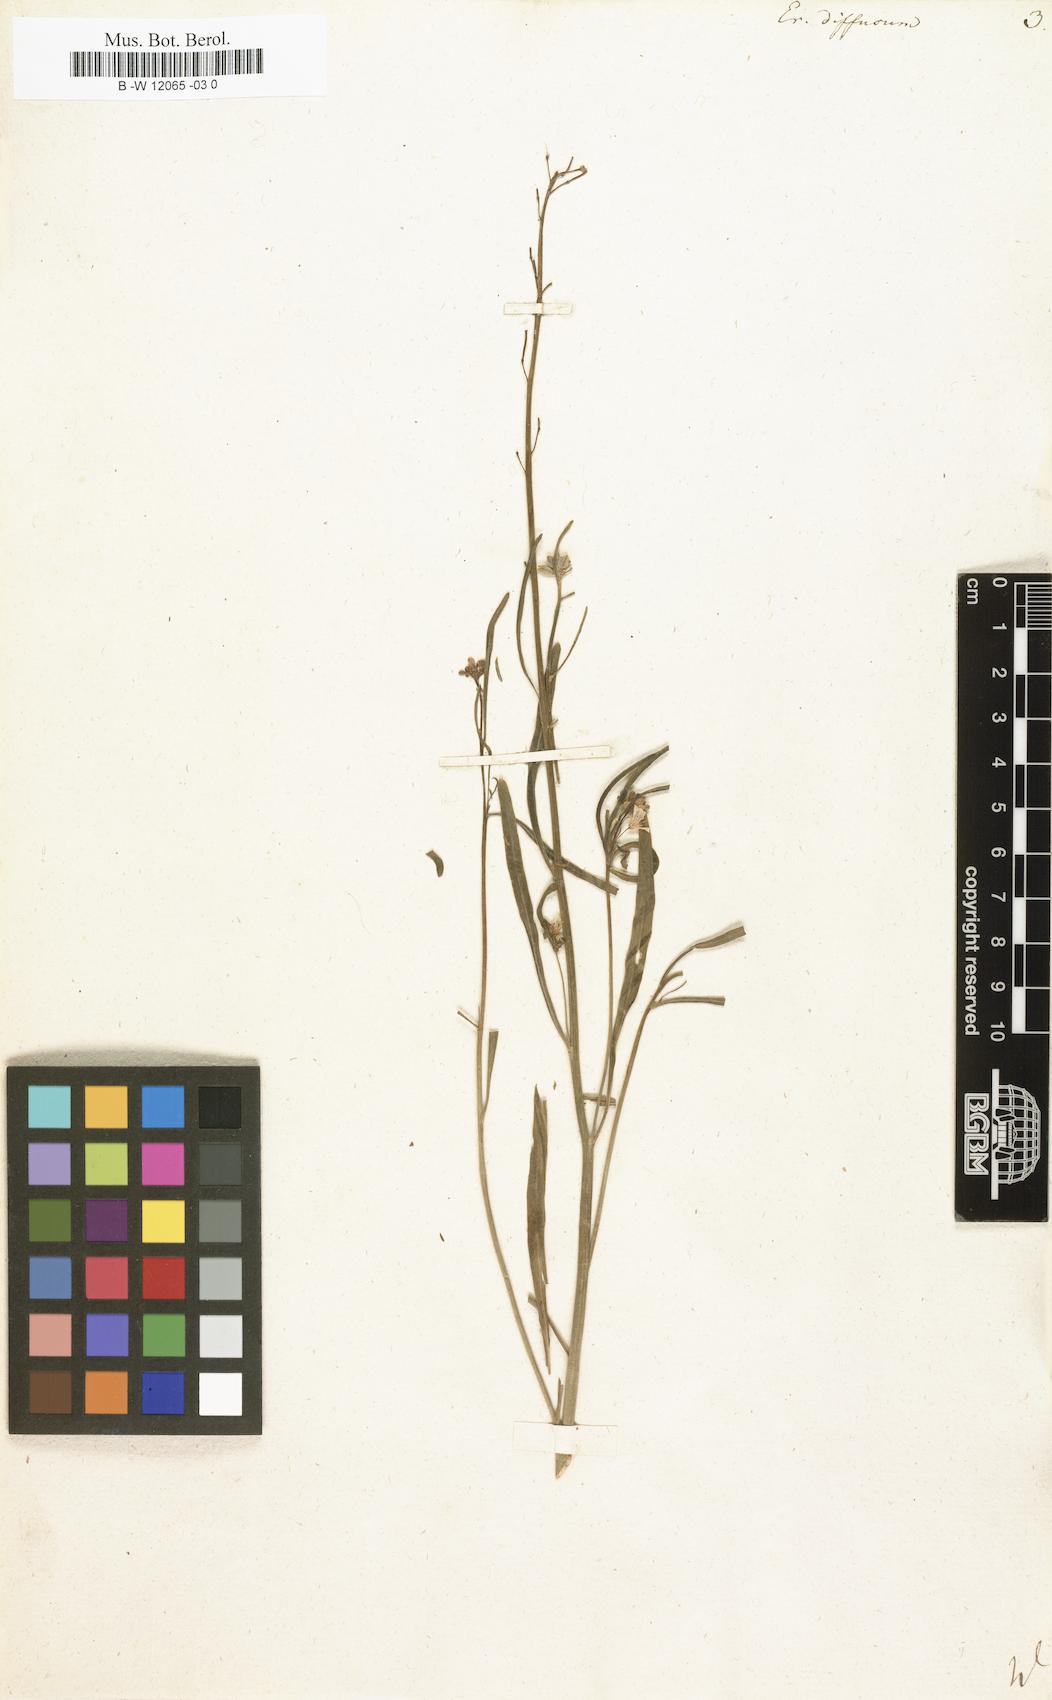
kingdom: Plantae
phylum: Tracheophyta
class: Magnoliopsida
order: Brassicales
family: Brassicaceae
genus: Erysimum
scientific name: Erysimum diffusum
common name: Diffuse wallflower
